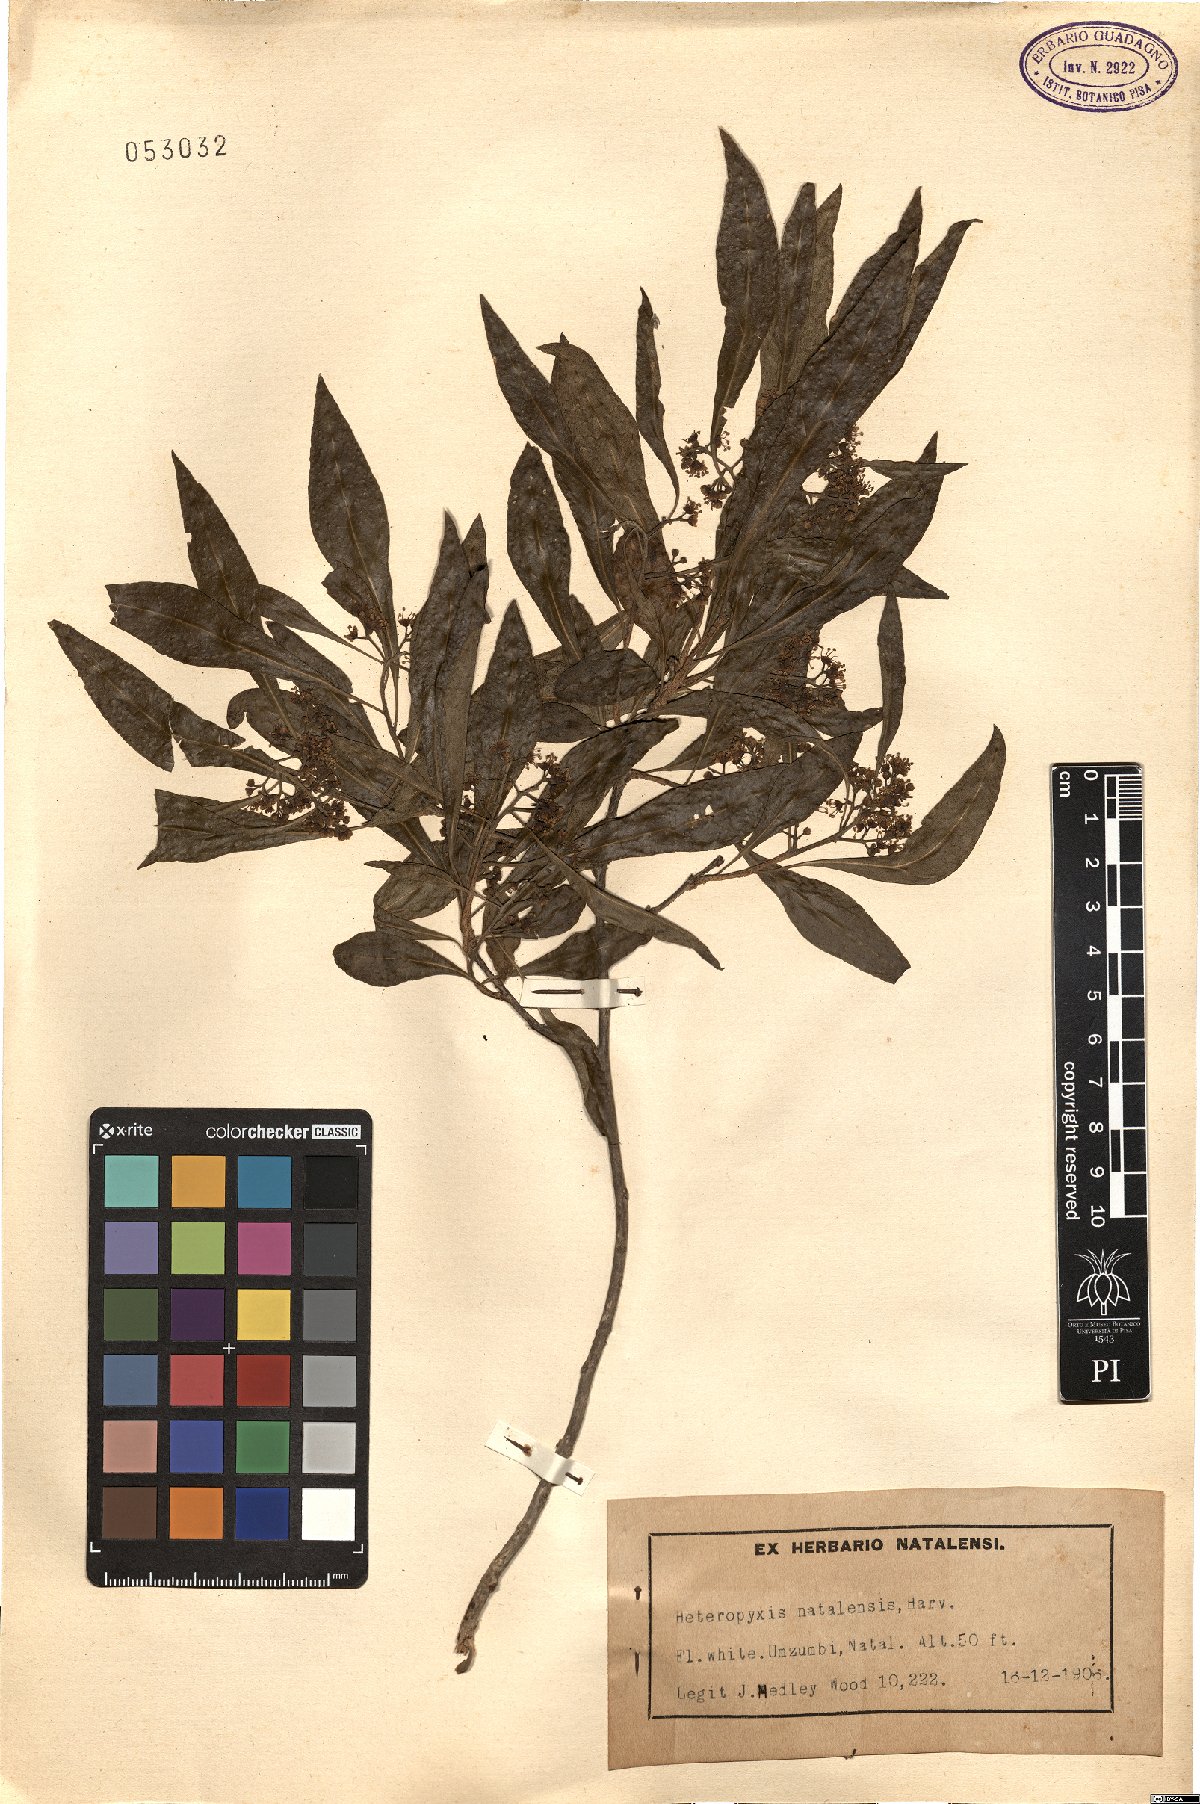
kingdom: Plantae
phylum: Tracheophyta
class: Magnoliopsida
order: Myrtales
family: Myrtaceae
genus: Heteropyxis
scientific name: Heteropyxis natalensis
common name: Lavender tree
